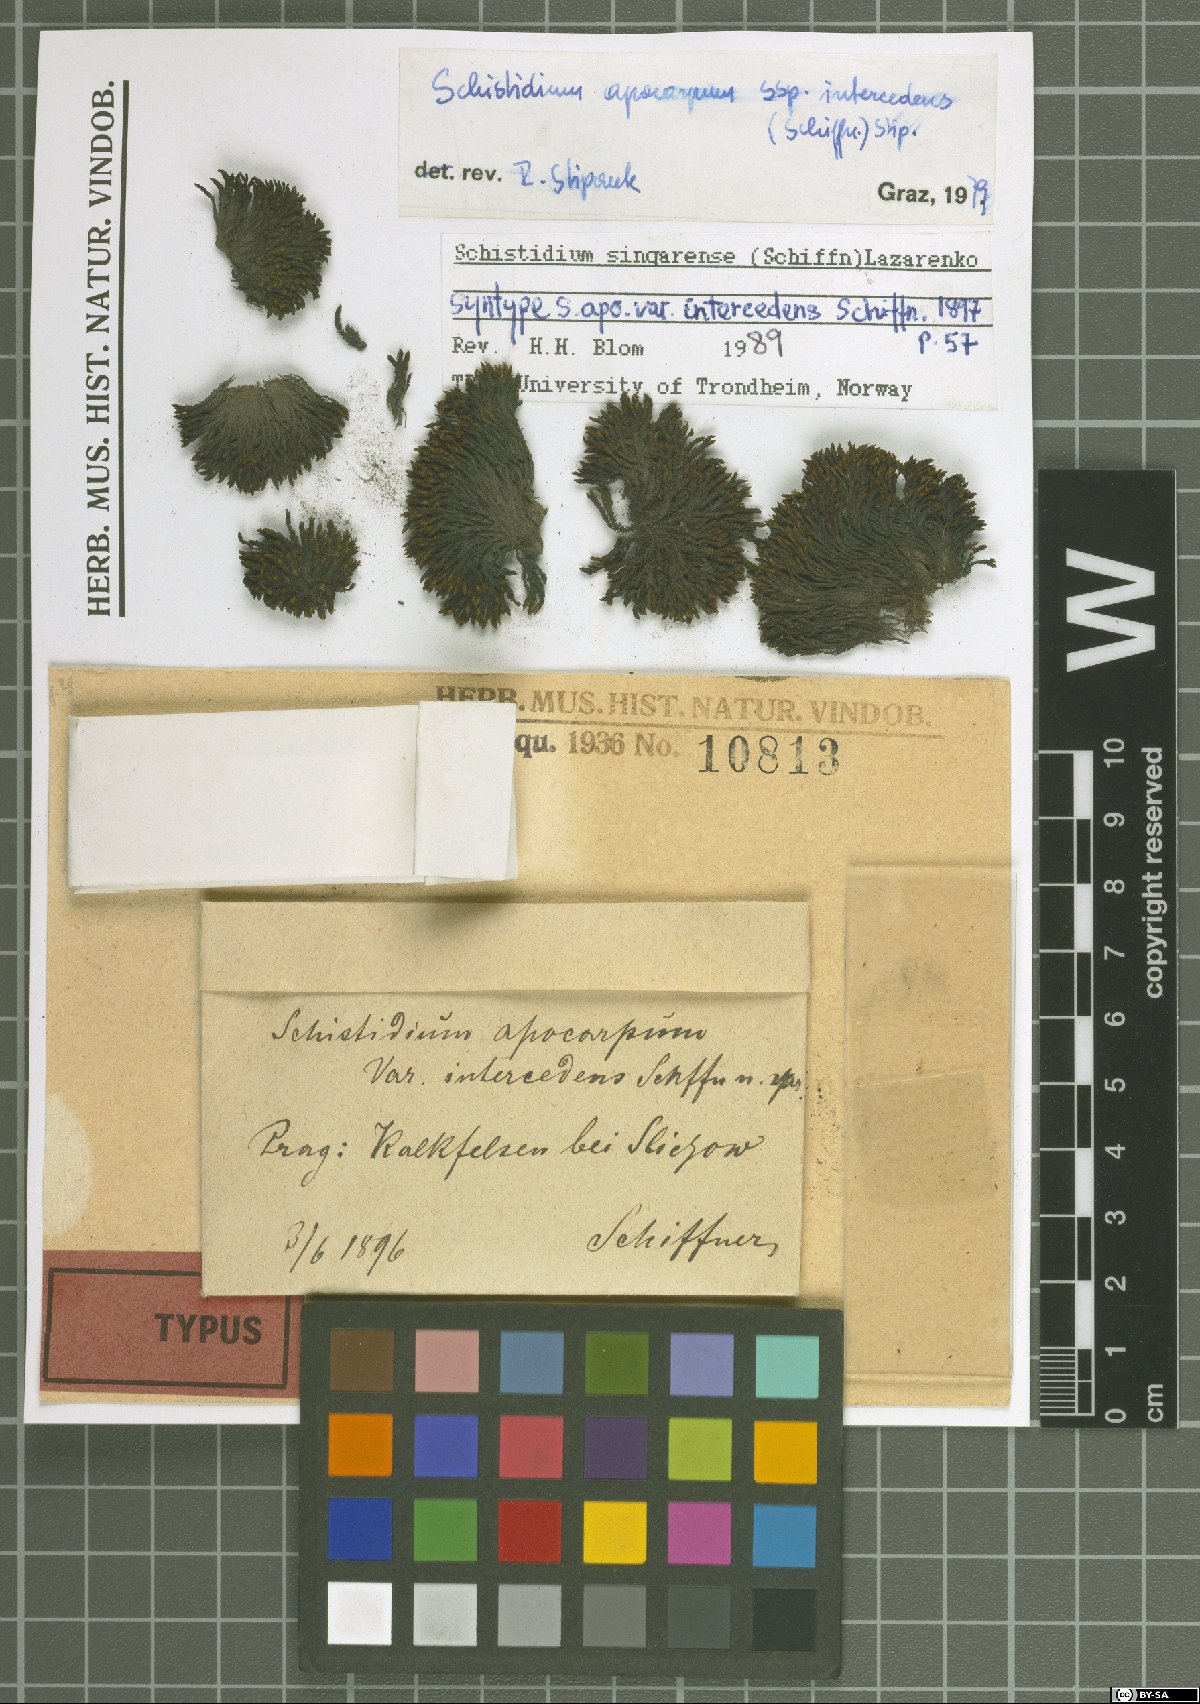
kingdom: Plantae
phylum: Bryophyta
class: Bryopsida
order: Grimmiales
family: Grimmiaceae
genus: Schistidium
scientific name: Schistidium helveticum
